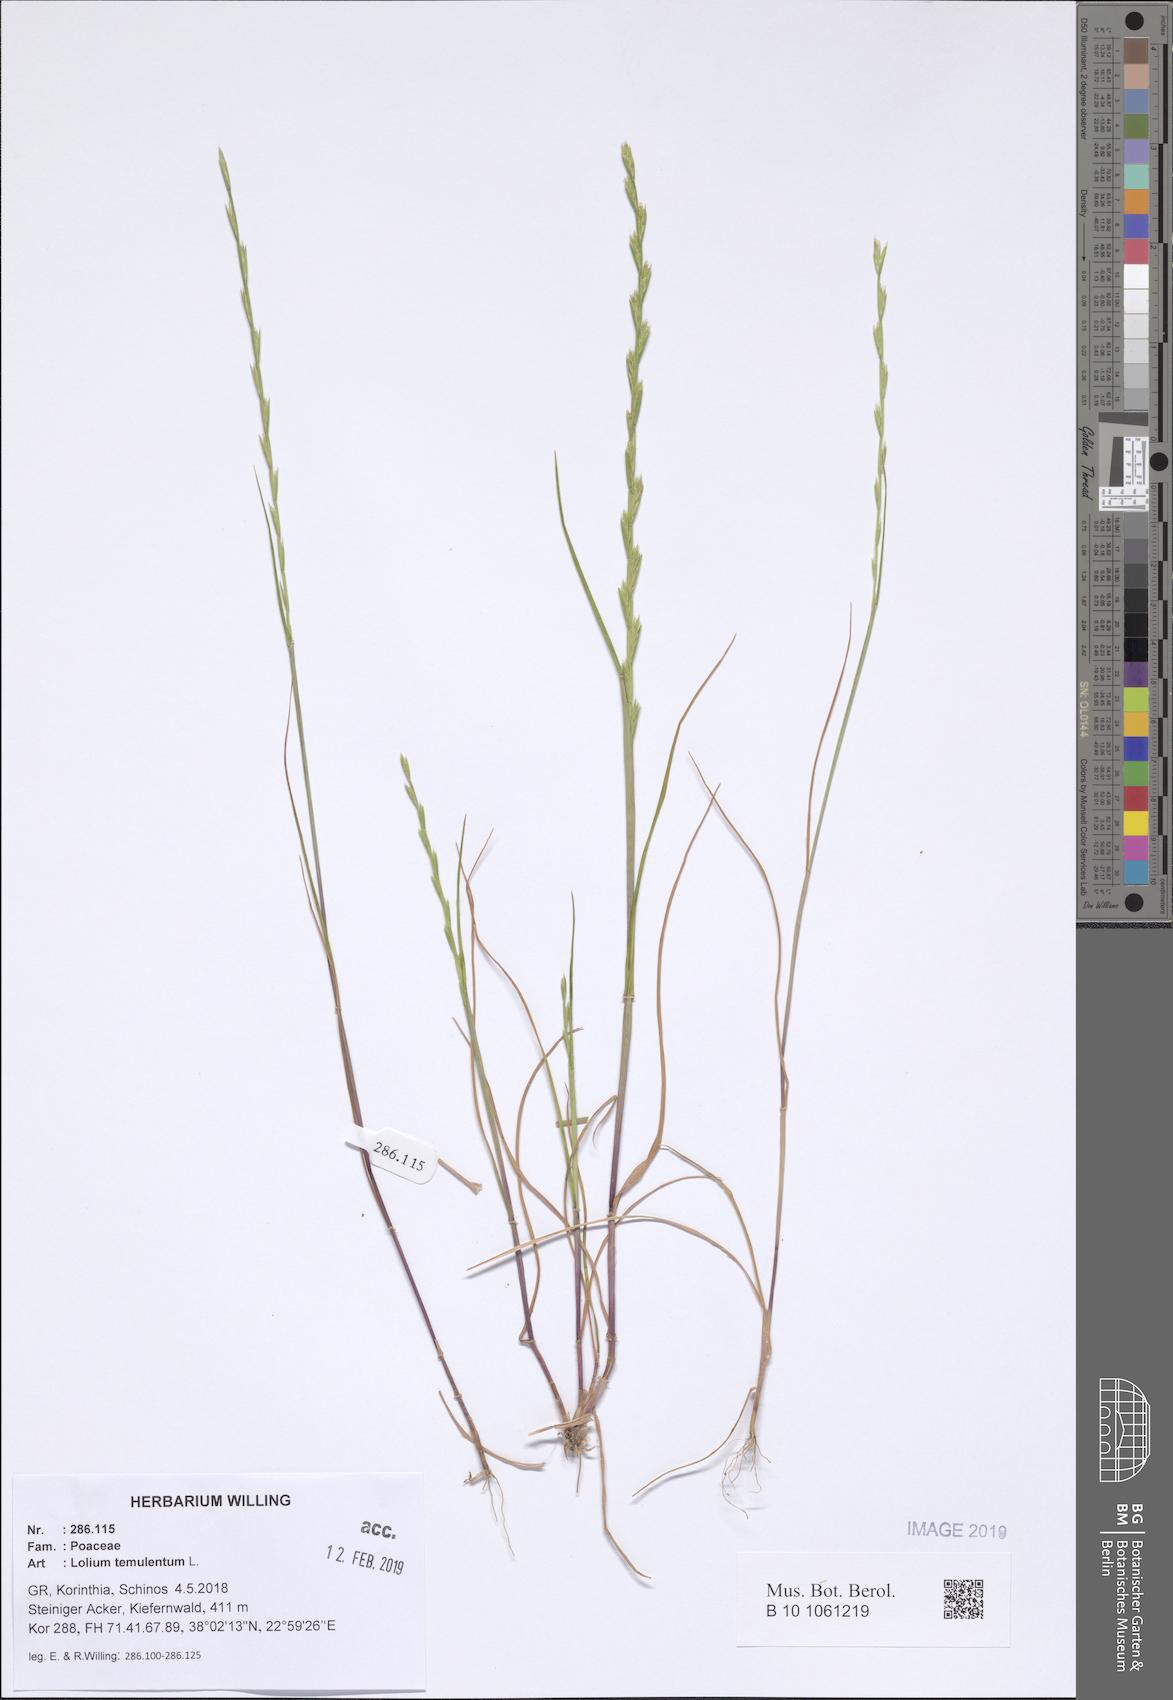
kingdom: Plantae
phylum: Tracheophyta
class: Liliopsida
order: Poales
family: Poaceae
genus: Lolium
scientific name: Lolium temulentum
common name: Darnel
